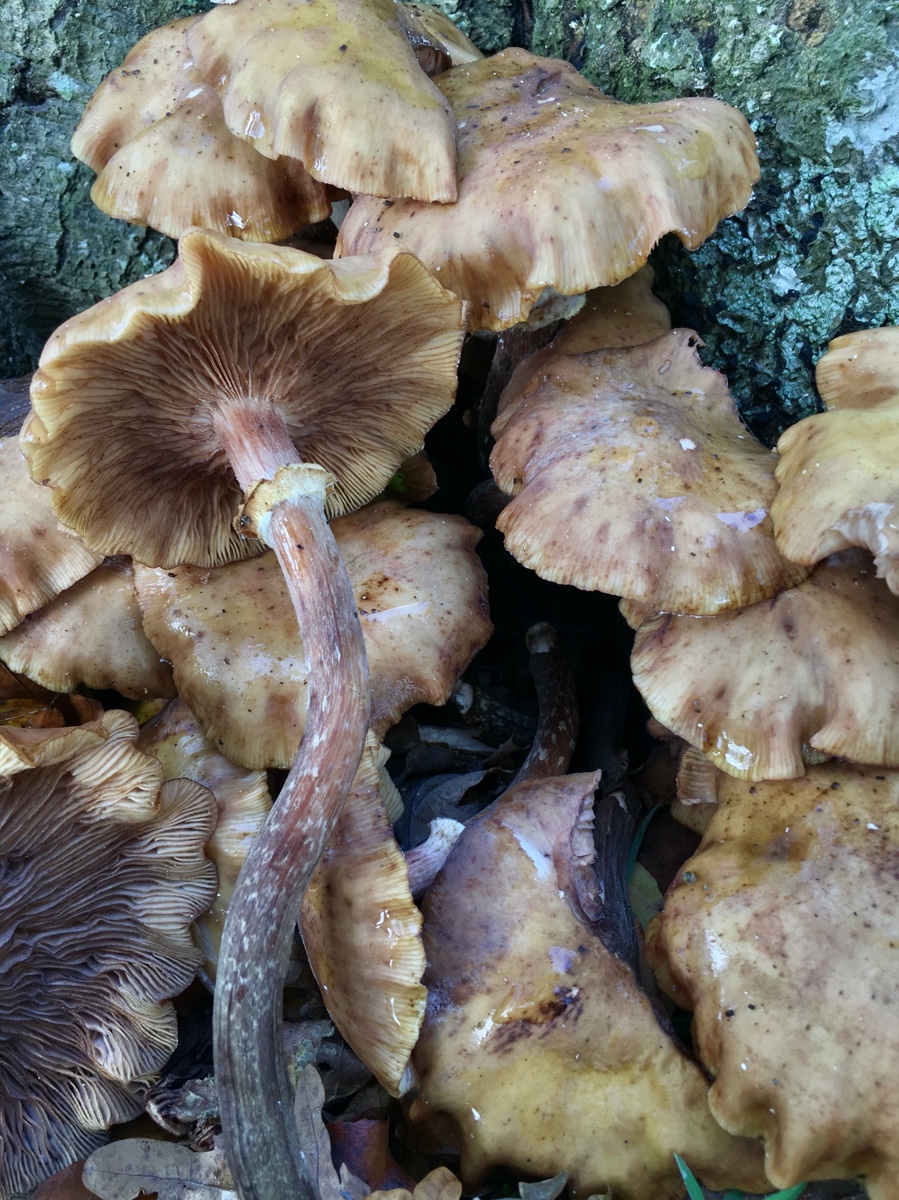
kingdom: Fungi
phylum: Basidiomycota
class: Agaricomycetes
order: Agaricales
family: Physalacriaceae
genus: Armillaria
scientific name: Armillaria mellea
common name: ægte honningsvamp
